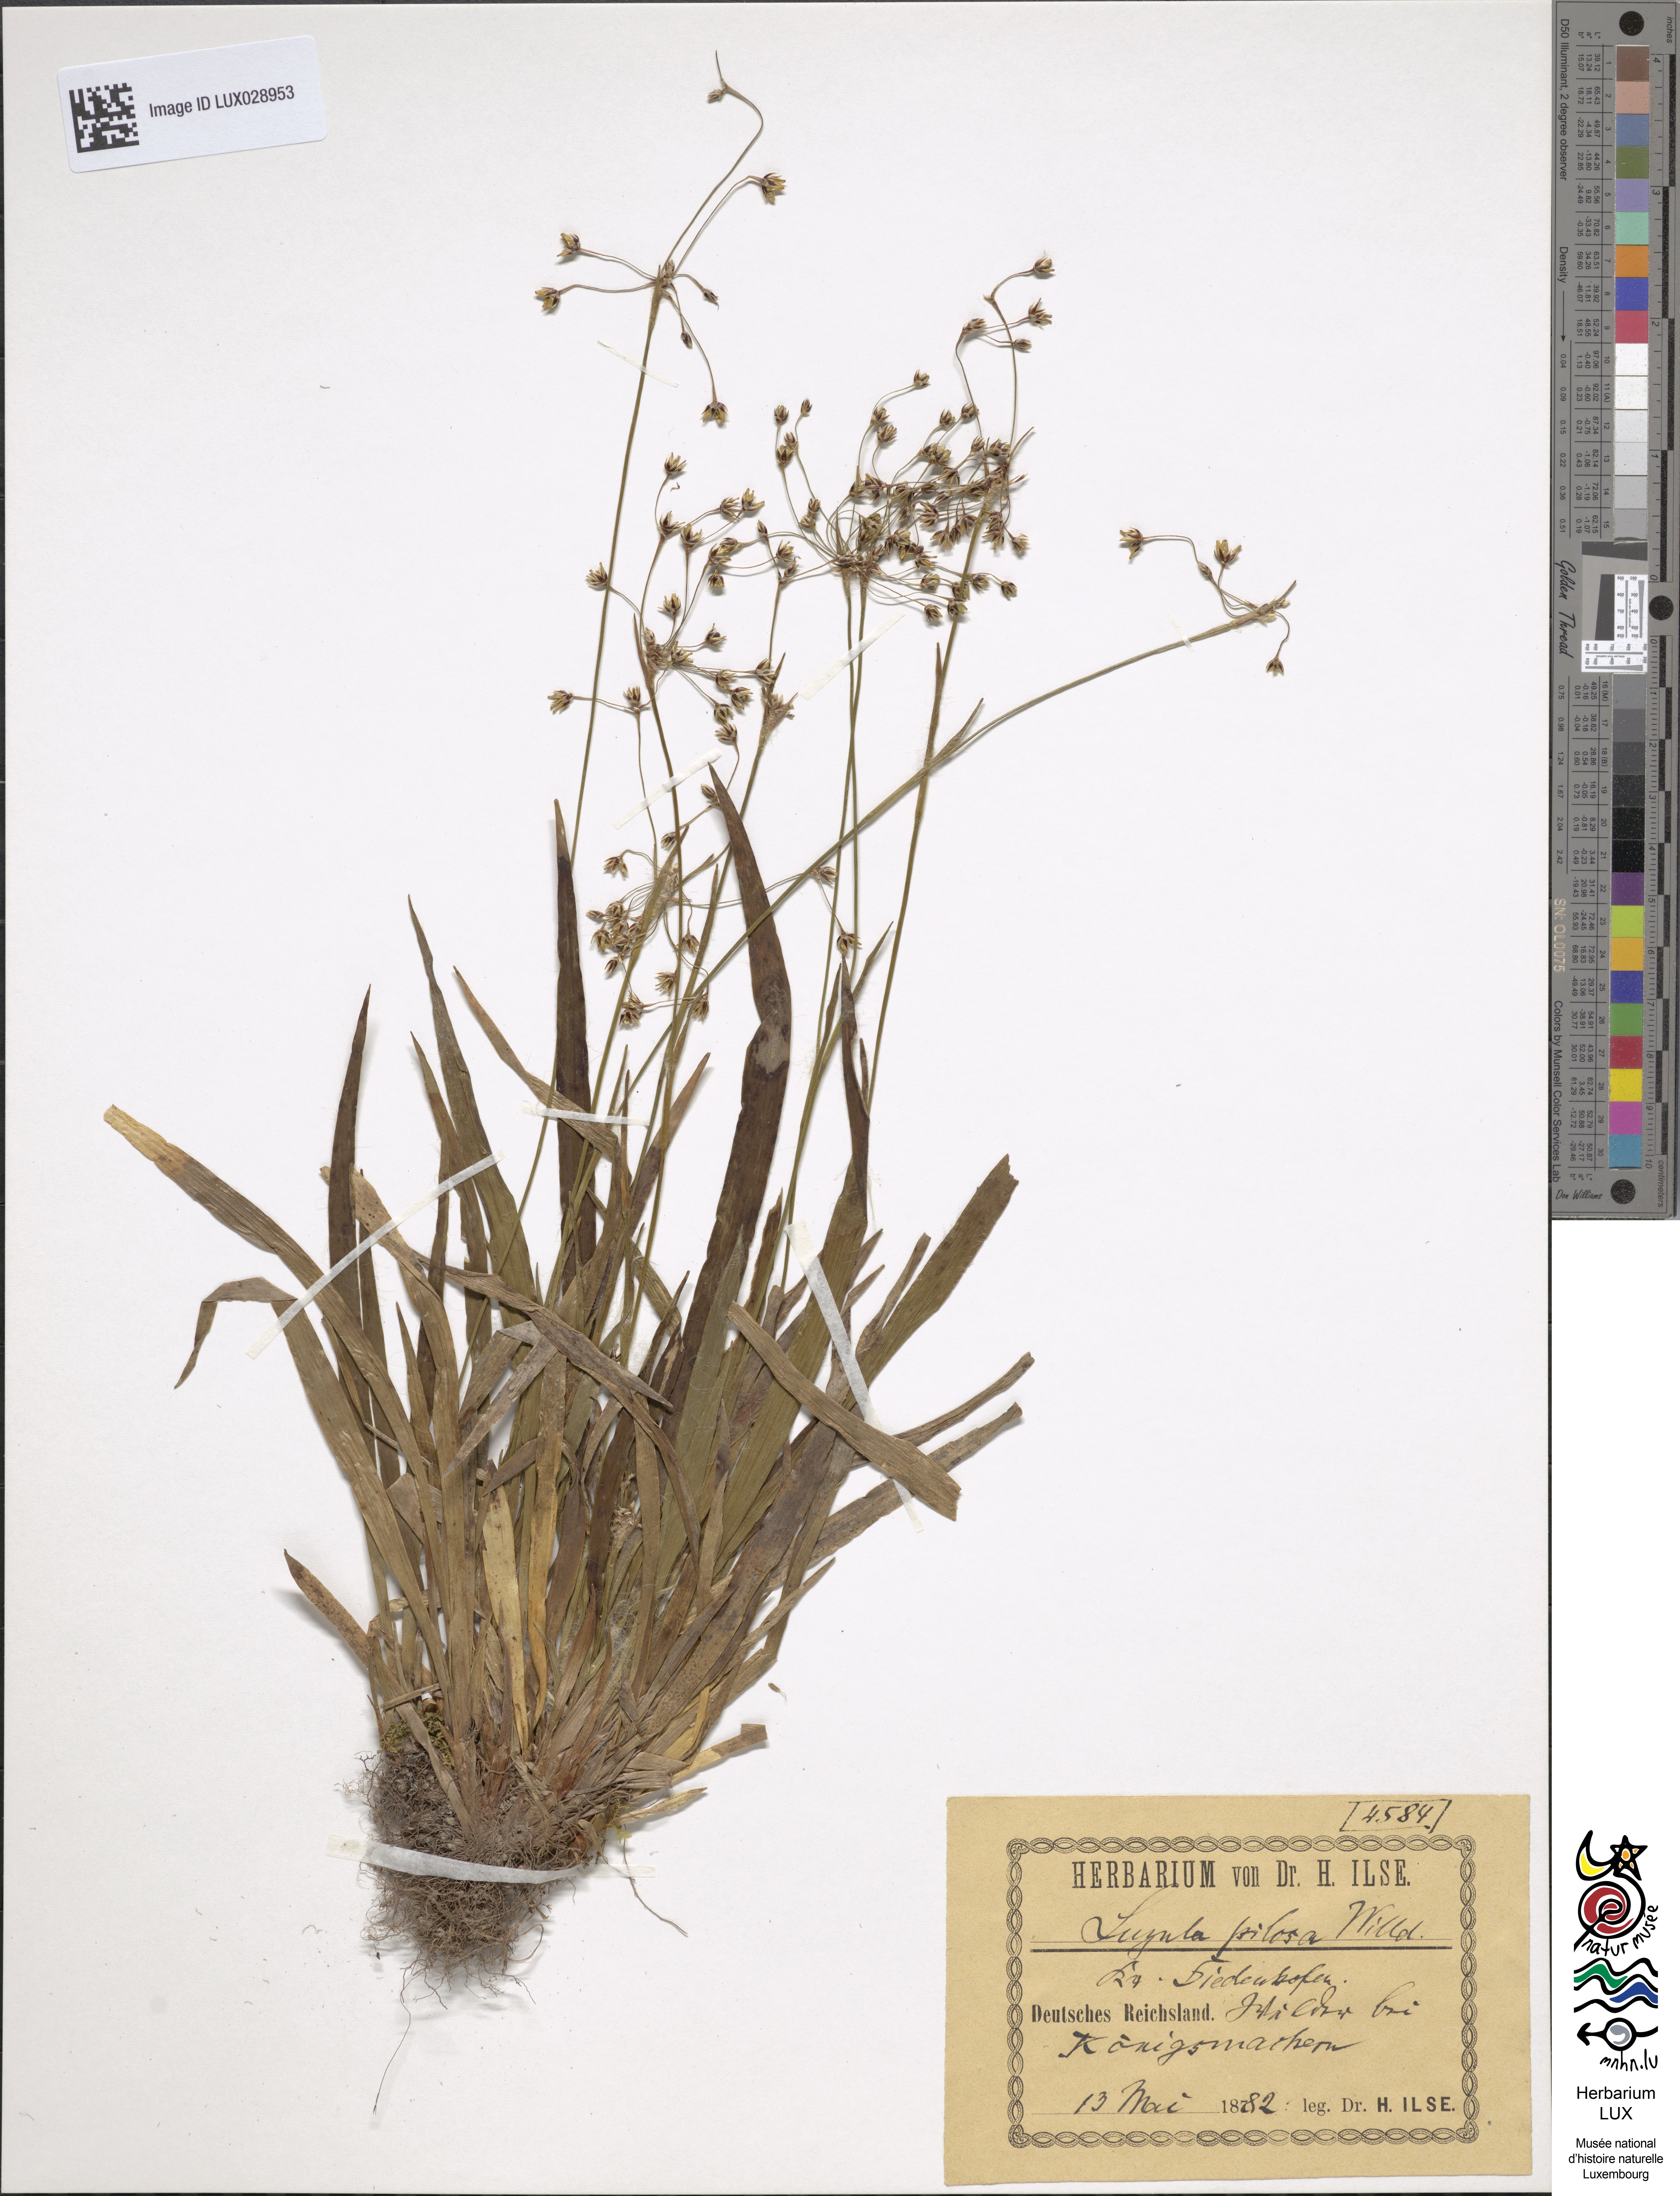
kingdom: Plantae
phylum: Tracheophyta
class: Liliopsida
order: Poales
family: Juncaceae
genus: Luzula
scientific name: Luzula pilosa
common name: Hairy wood-rush
